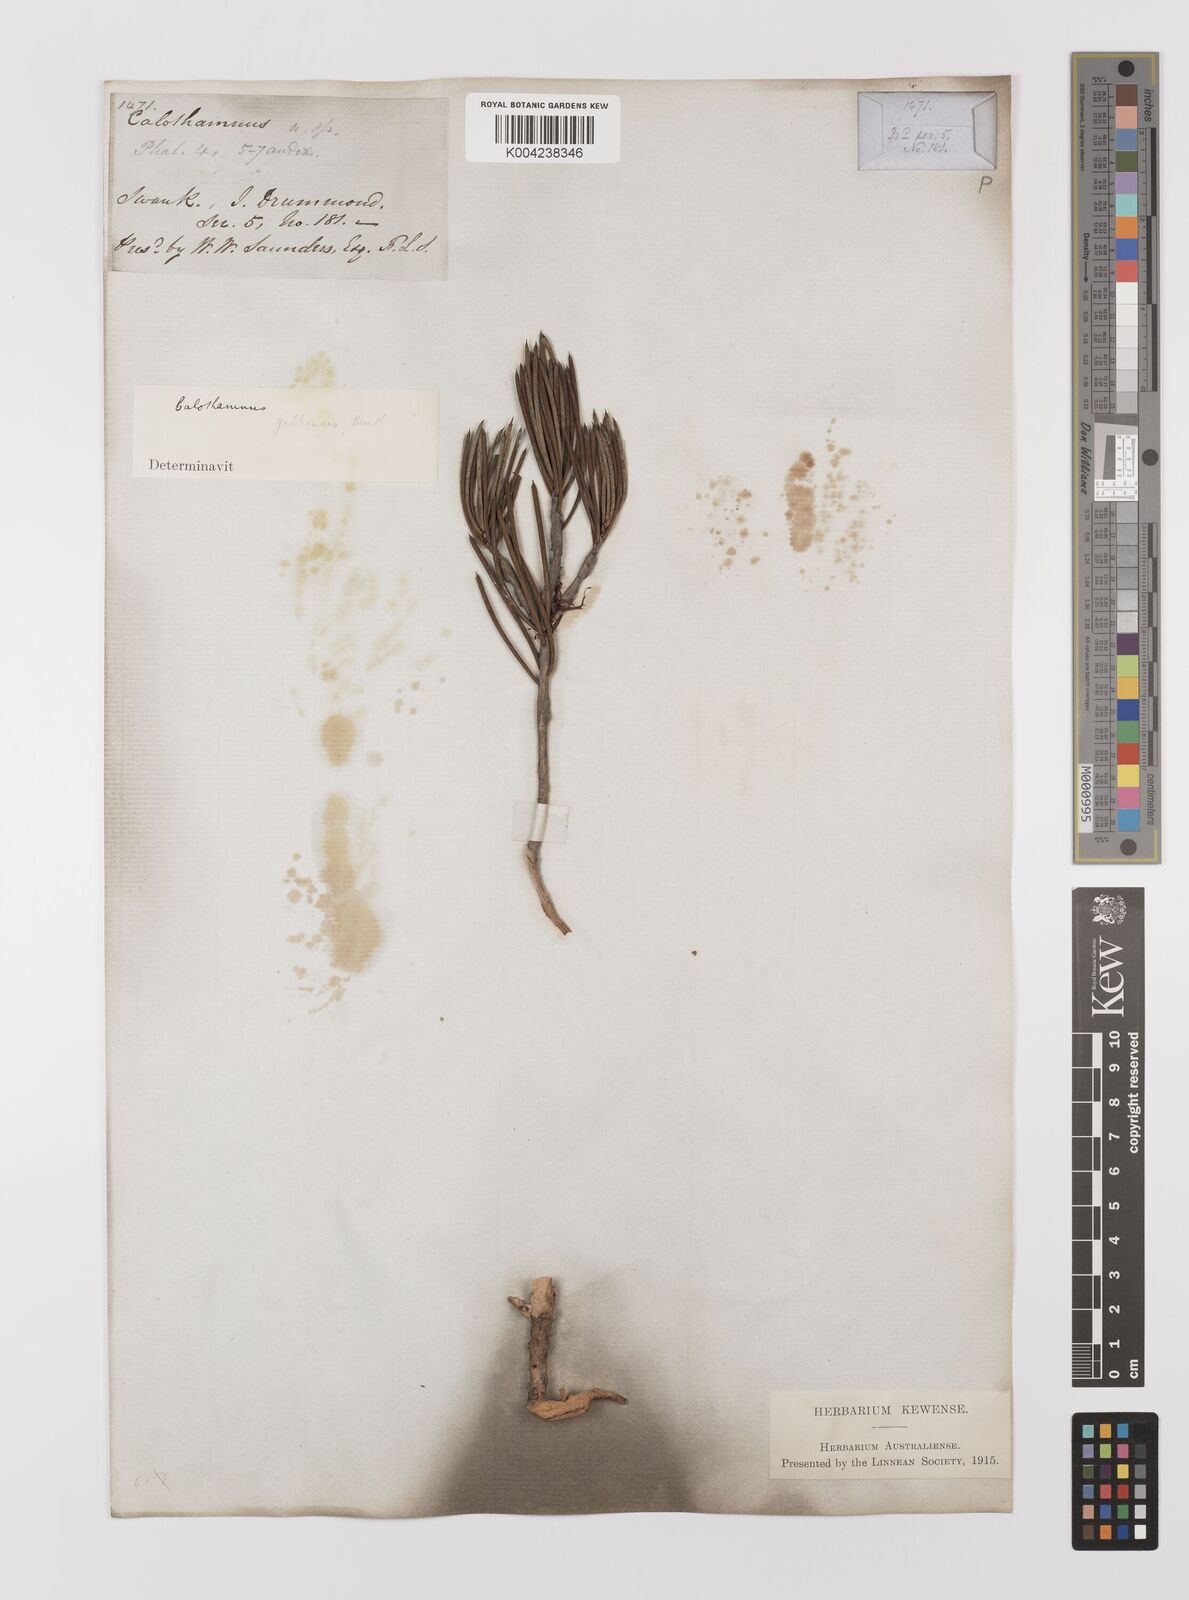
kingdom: Plantae
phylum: Tracheophyta
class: Magnoliopsida
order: Myrtales
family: Myrtaceae
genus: Melaleuca
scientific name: Melaleuca protumida
